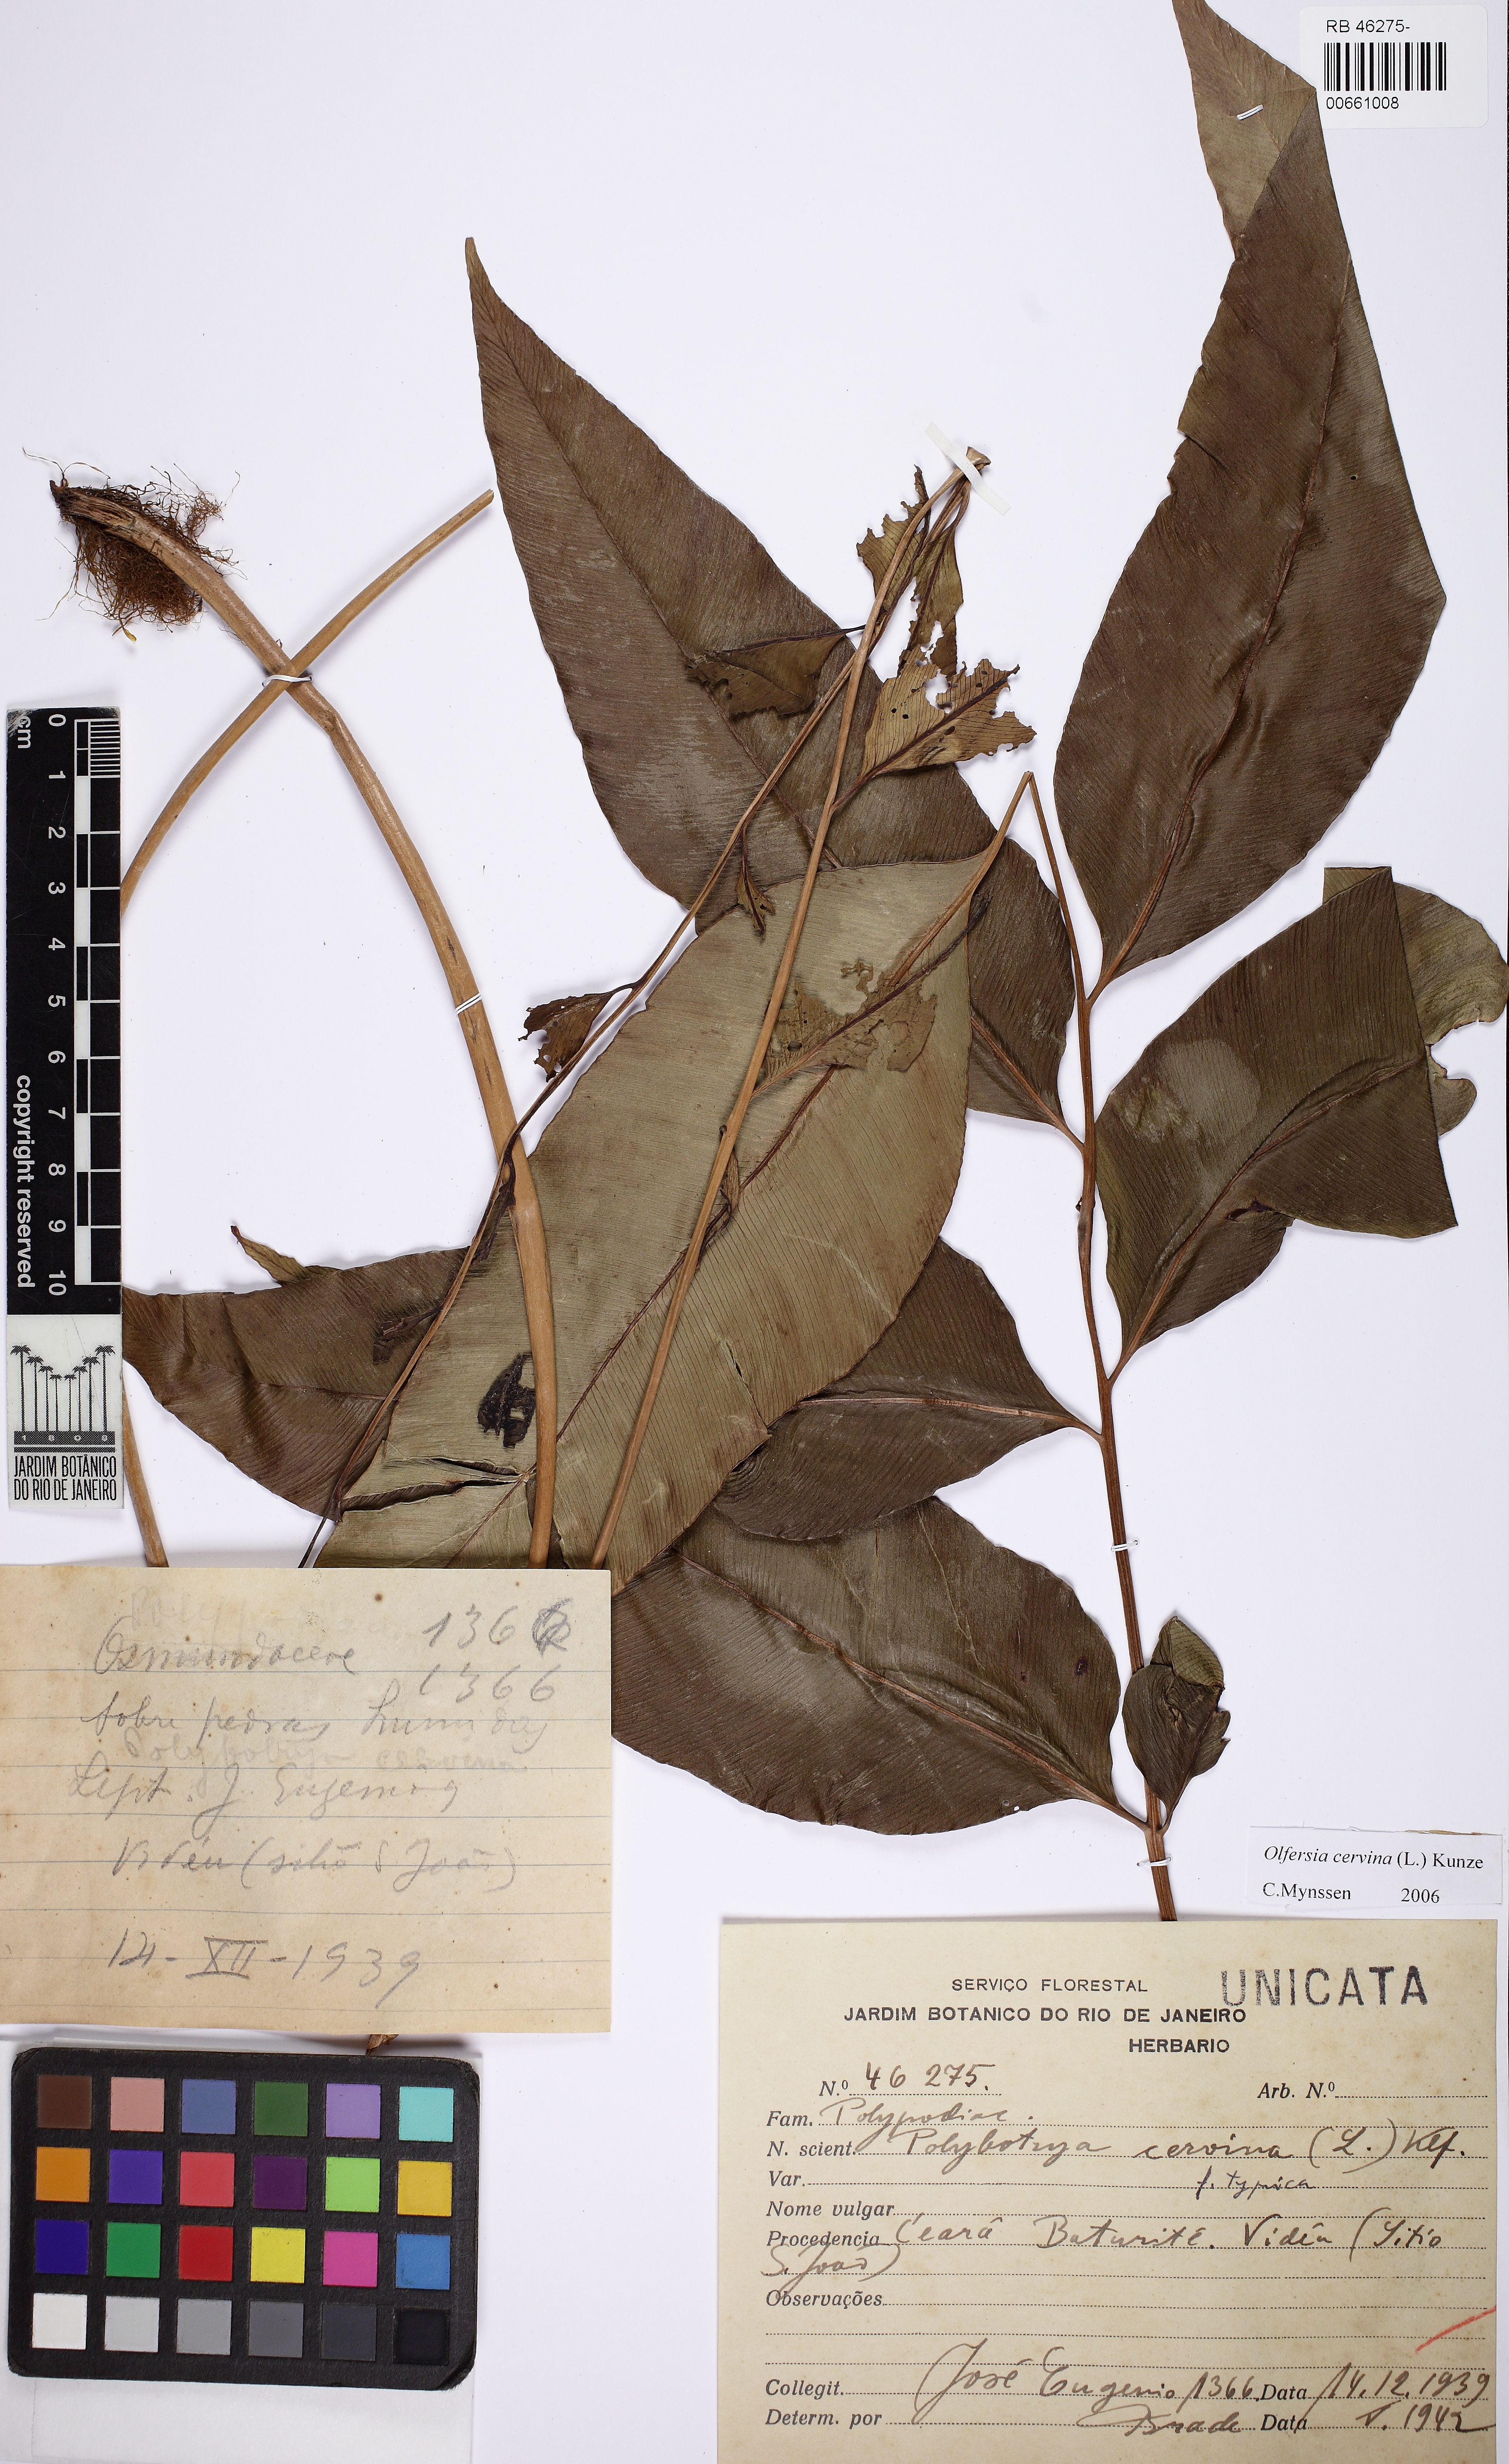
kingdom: Plantae
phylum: Tracheophyta
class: Polypodiopsida
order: Polypodiales
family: Dryopteridaceae
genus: Olfersia
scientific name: Olfersia cervina
